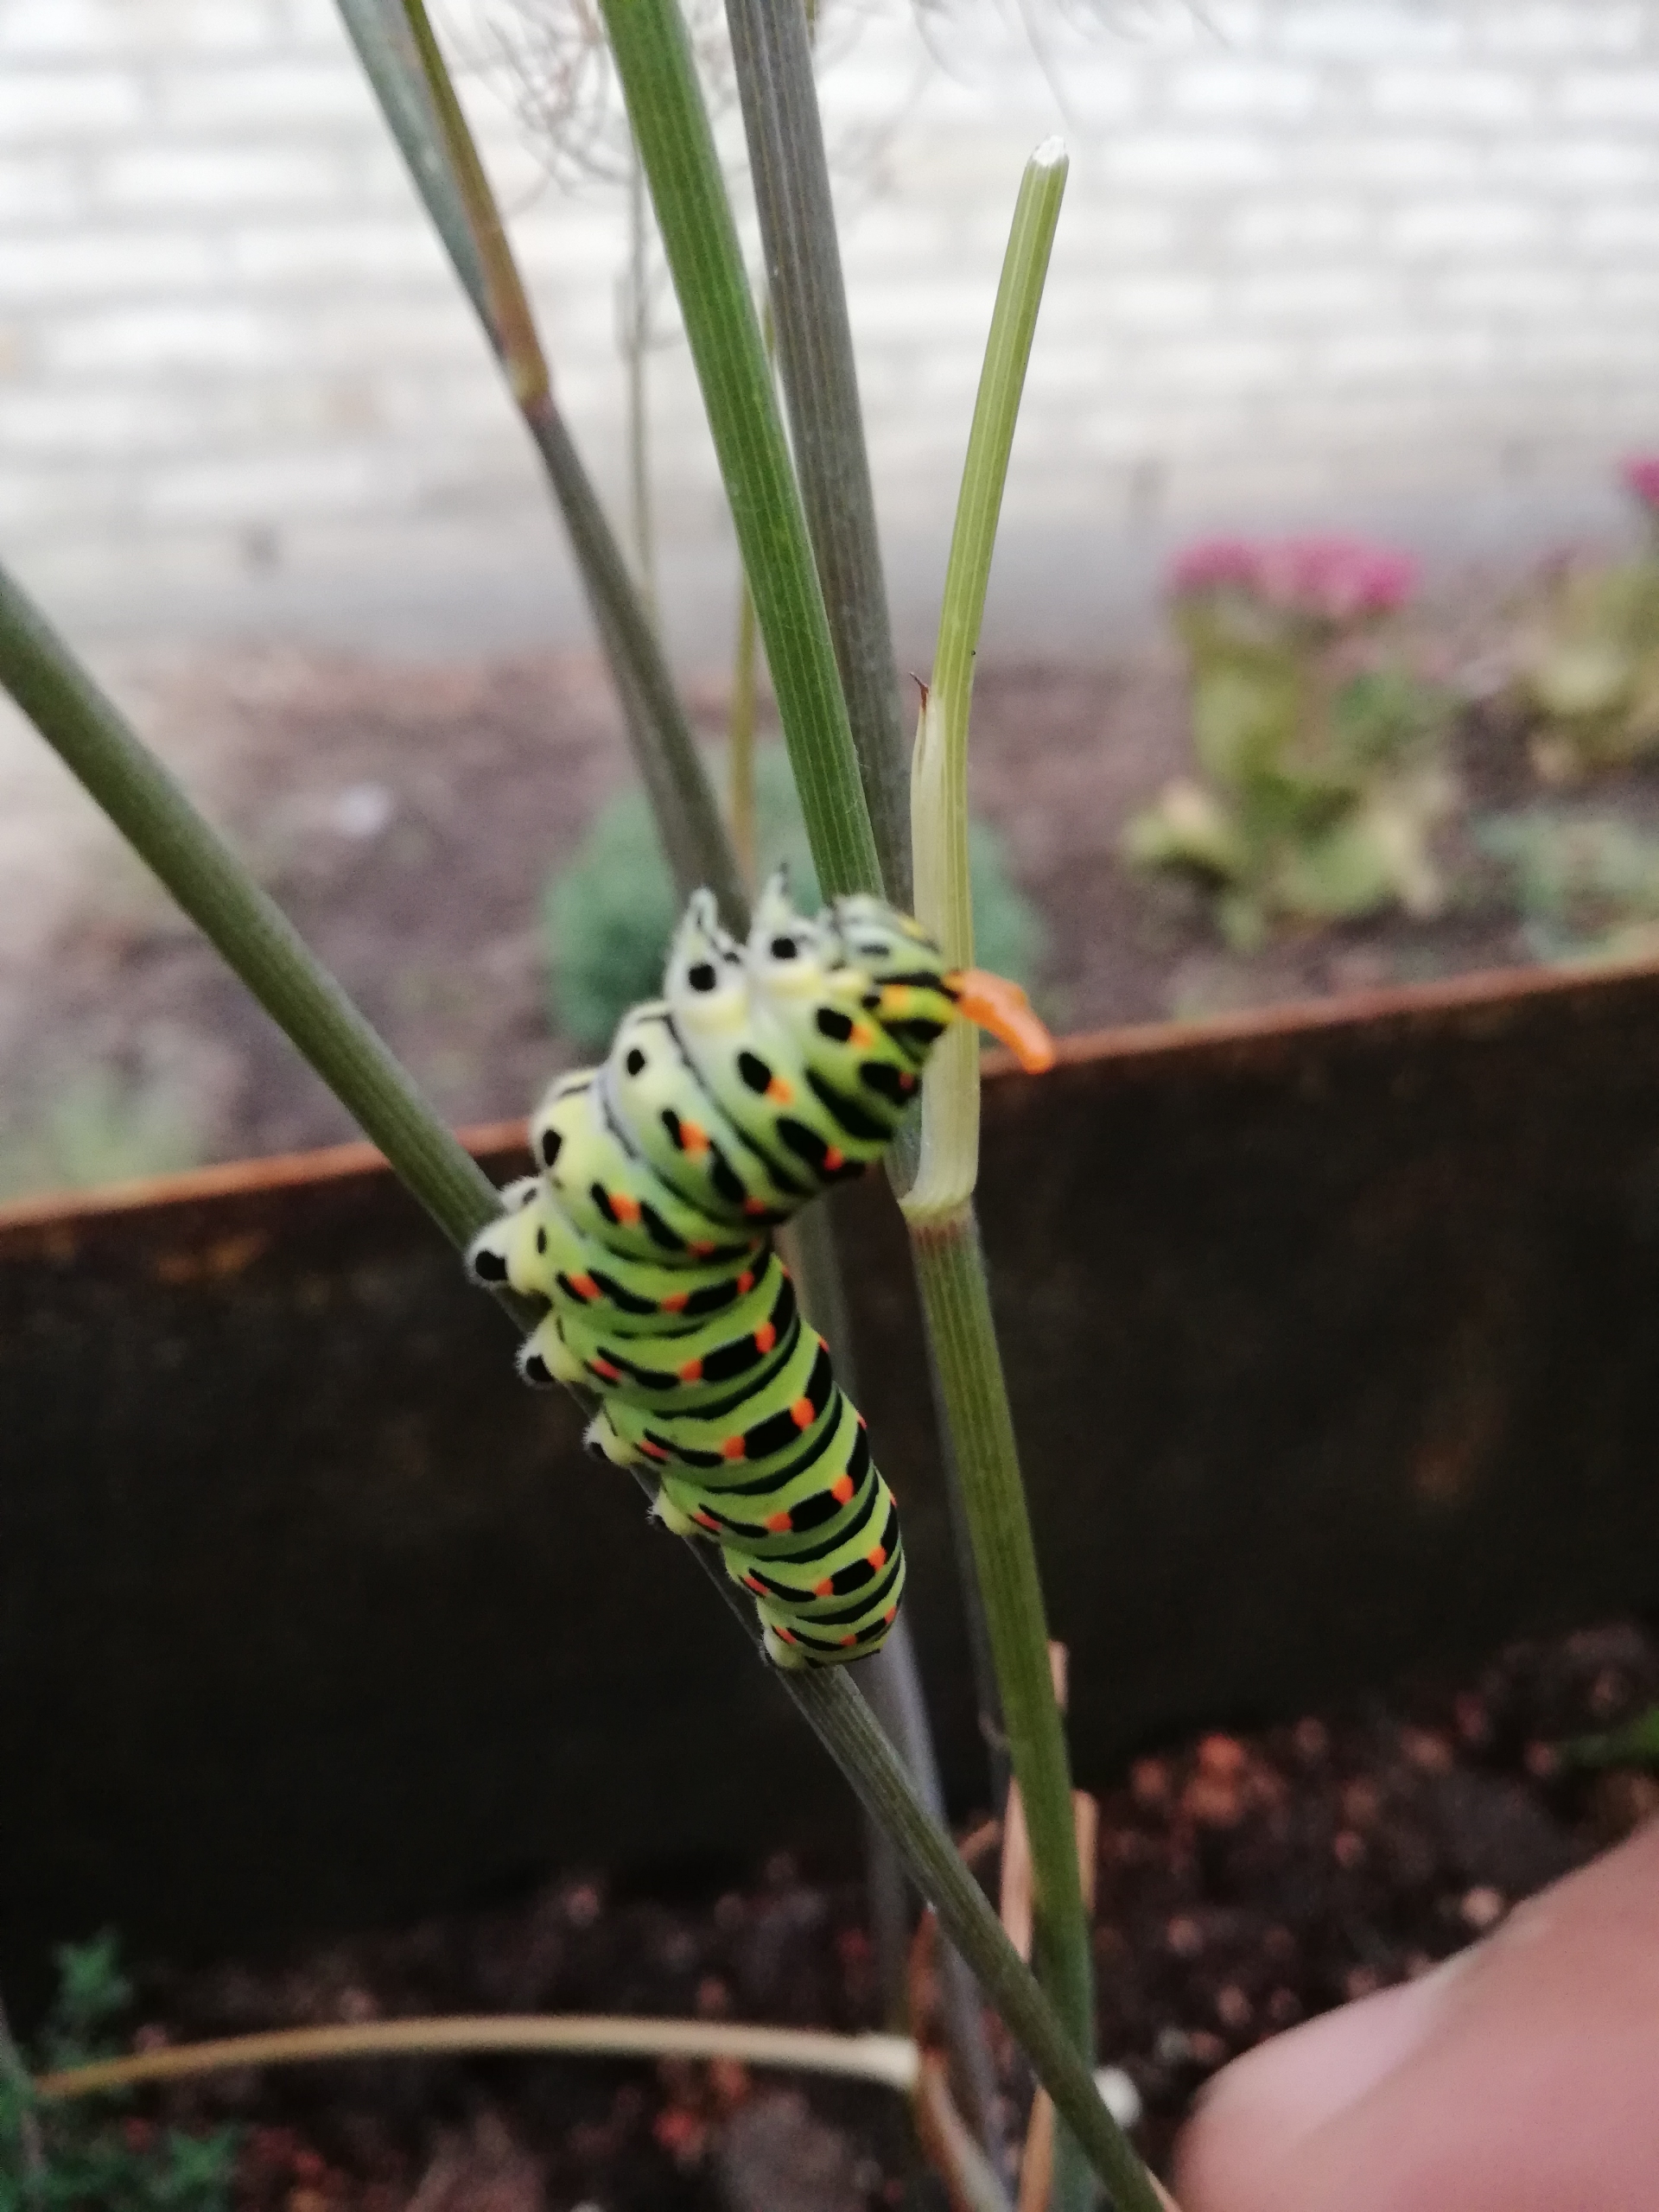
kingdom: Animalia
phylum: Arthropoda
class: Insecta
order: Lepidoptera
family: Papilionidae
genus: Papilio
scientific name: Papilio machaon
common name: Svalehale
